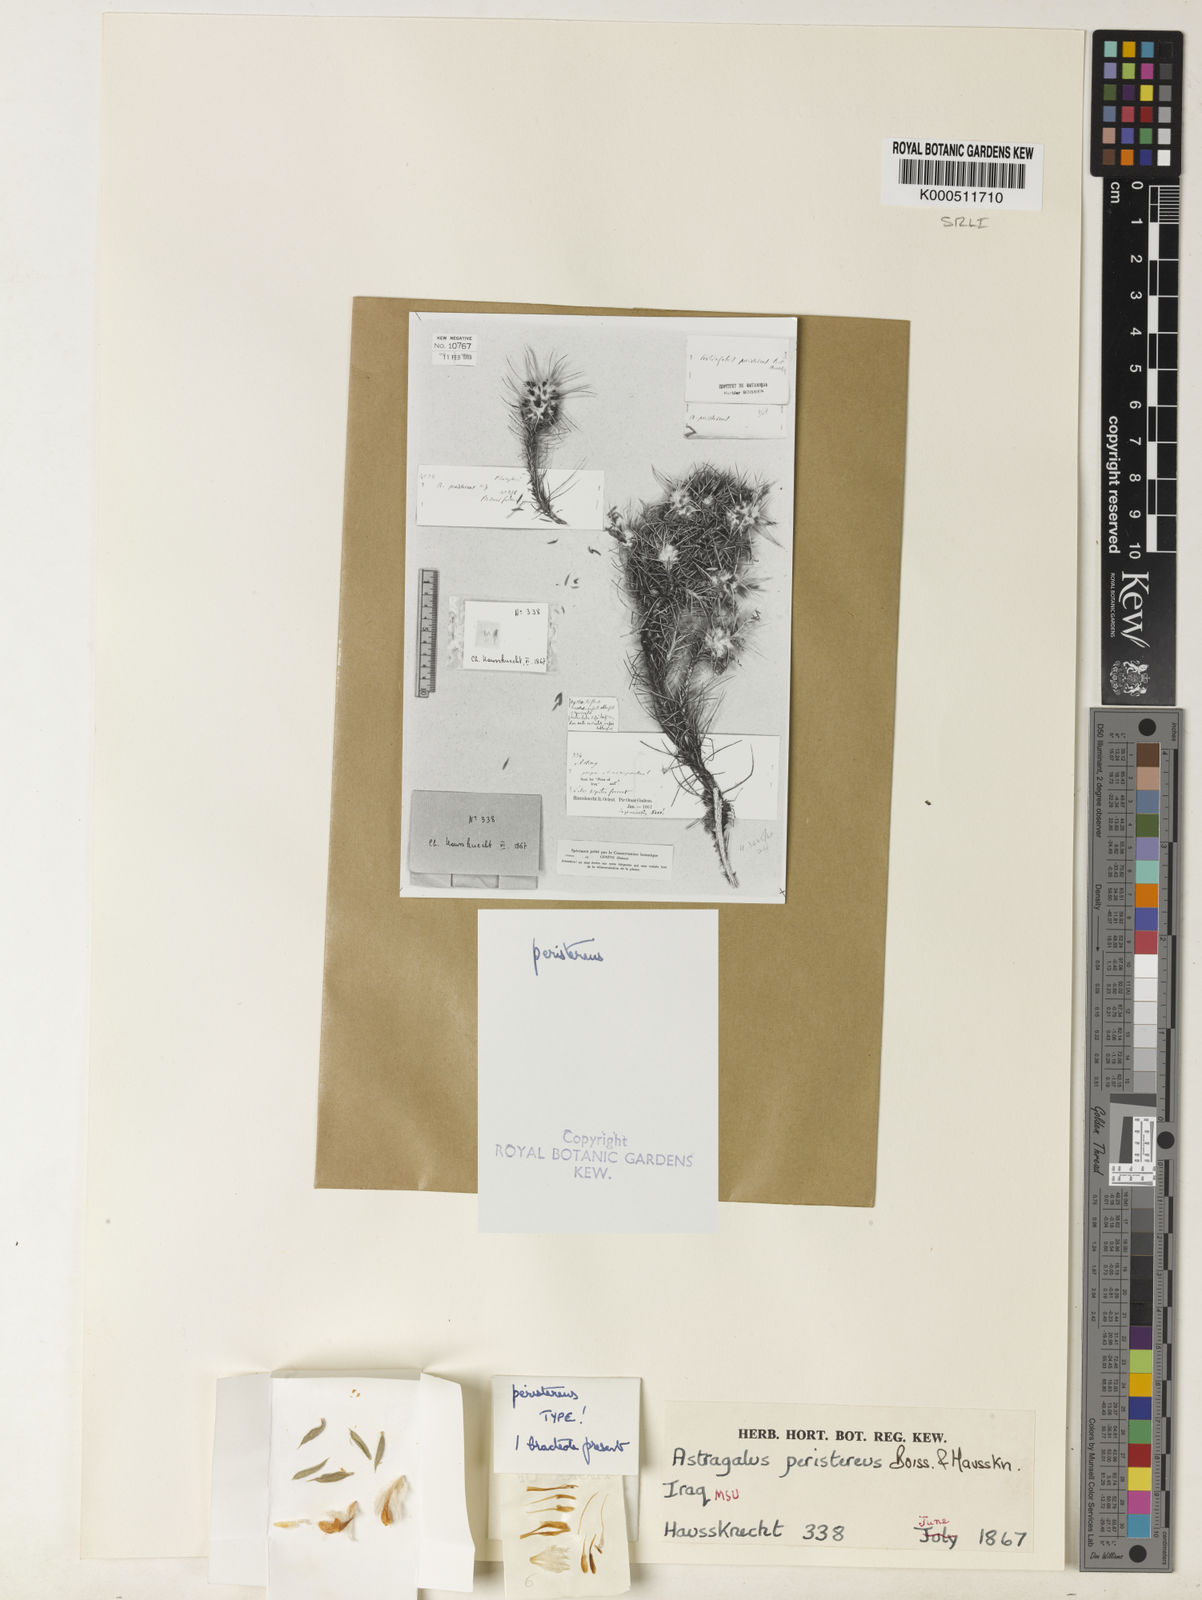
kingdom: Plantae
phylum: Tracheophyta
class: Magnoliopsida
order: Fabales
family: Fabaceae
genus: Astragalus
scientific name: Astragalus strictifolius
